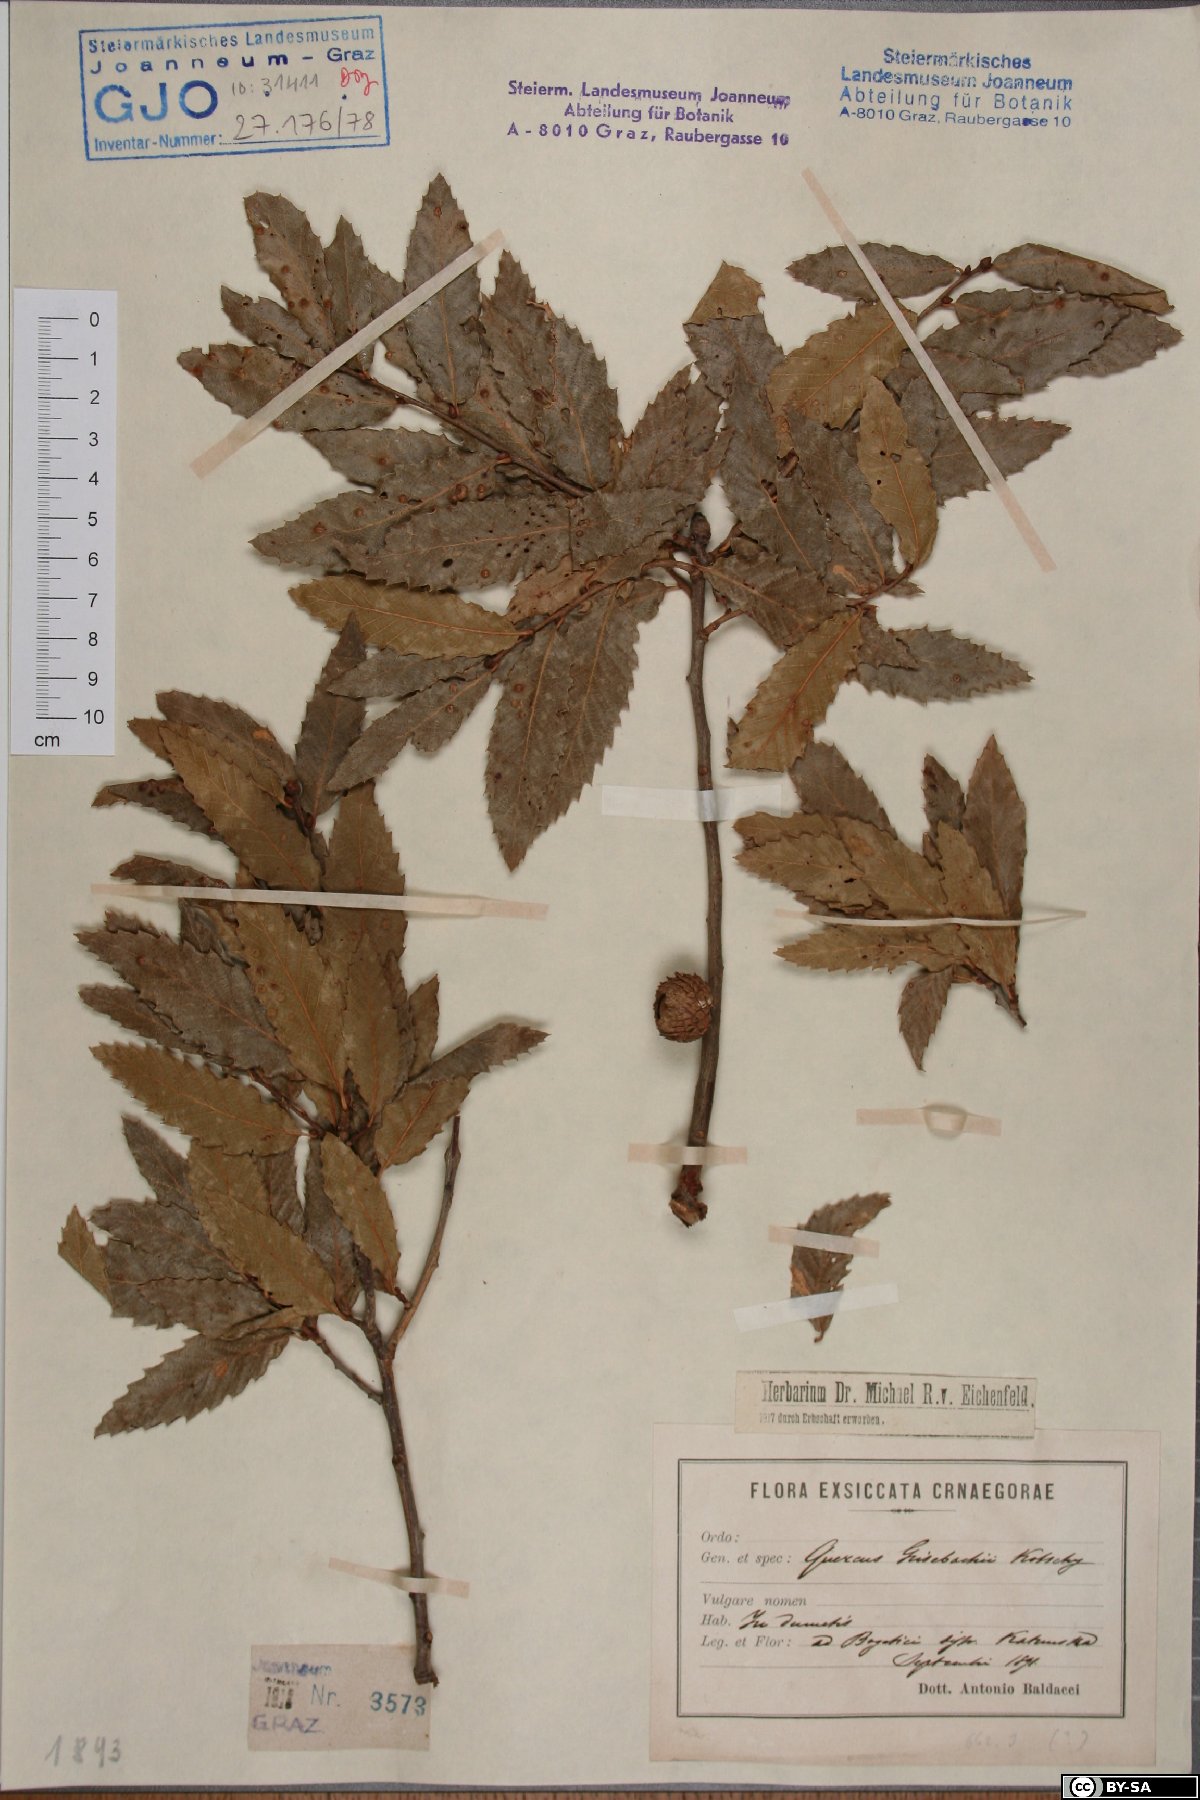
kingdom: Plantae
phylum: Tracheophyta
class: Magnoliopsida
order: Fagales
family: Fagaceae
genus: Quercus
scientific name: Quercus trojana
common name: Macedonian oak
